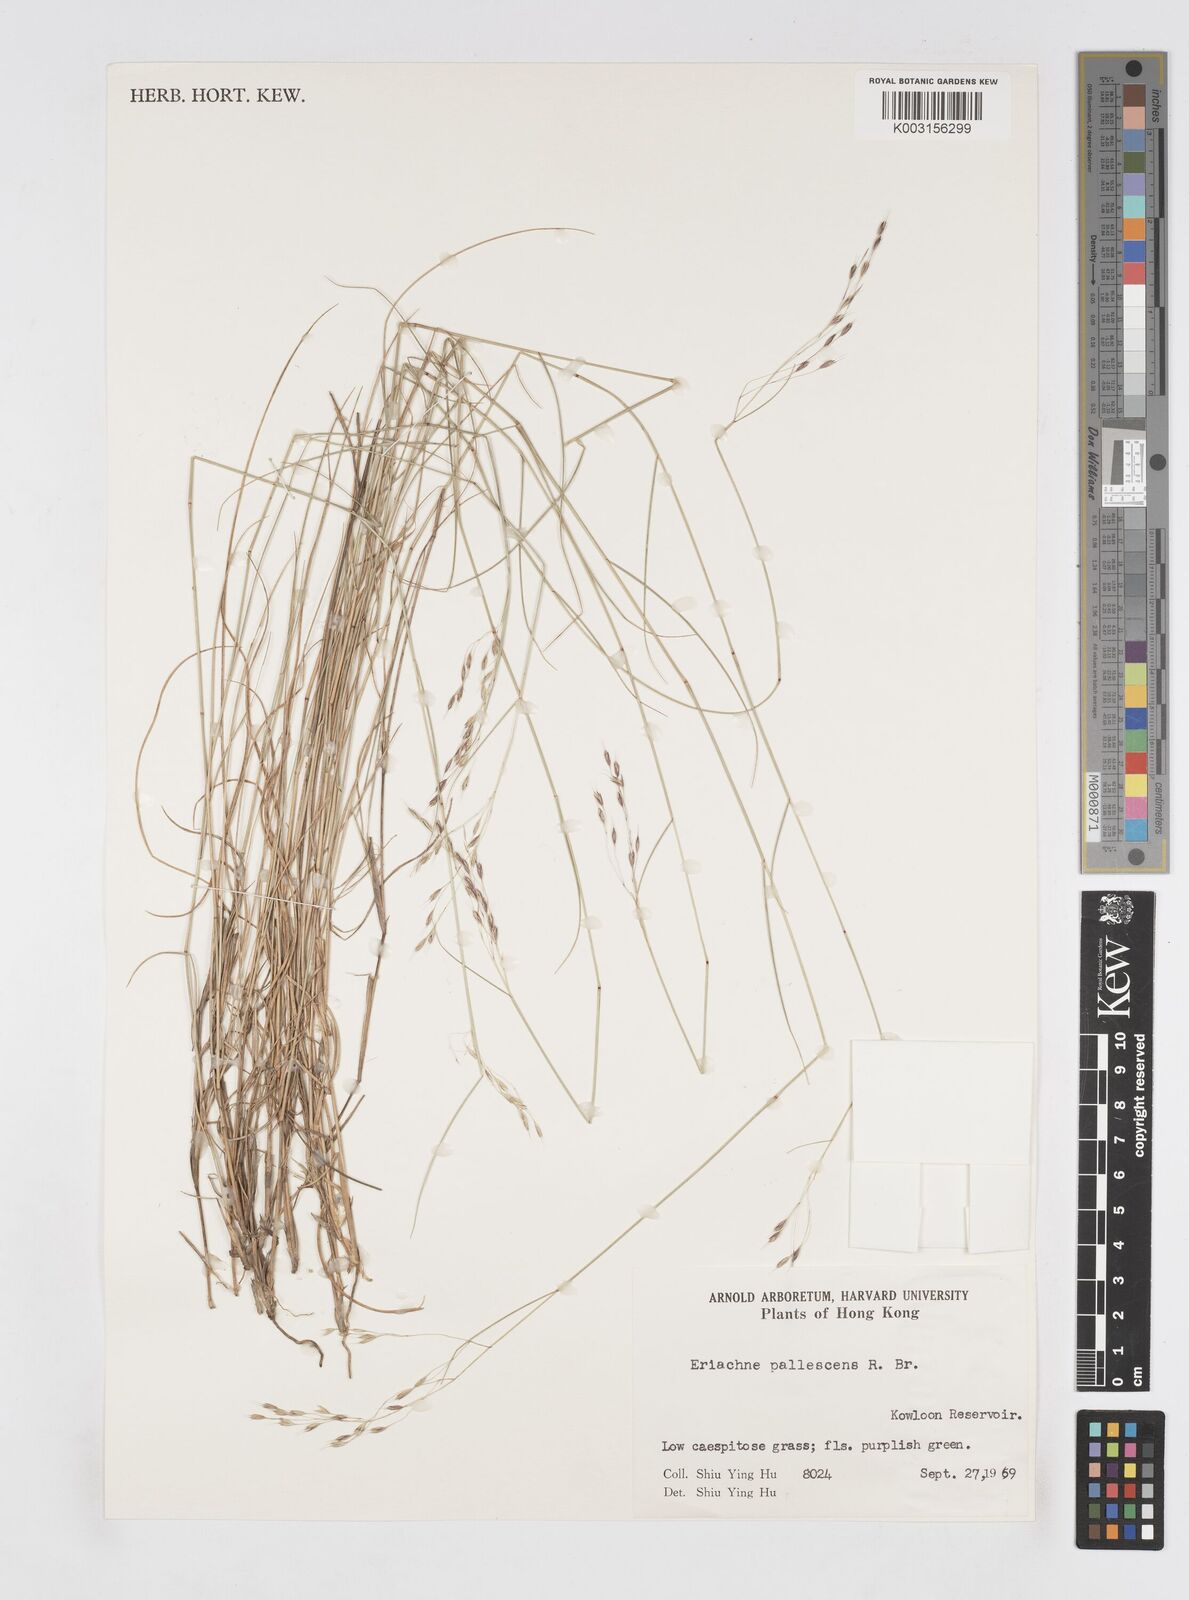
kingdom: Plantae
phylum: Tracheophyta
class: Liliopsida
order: Poales
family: Poaceae
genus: Eriachne
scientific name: Eriachne pallescens
